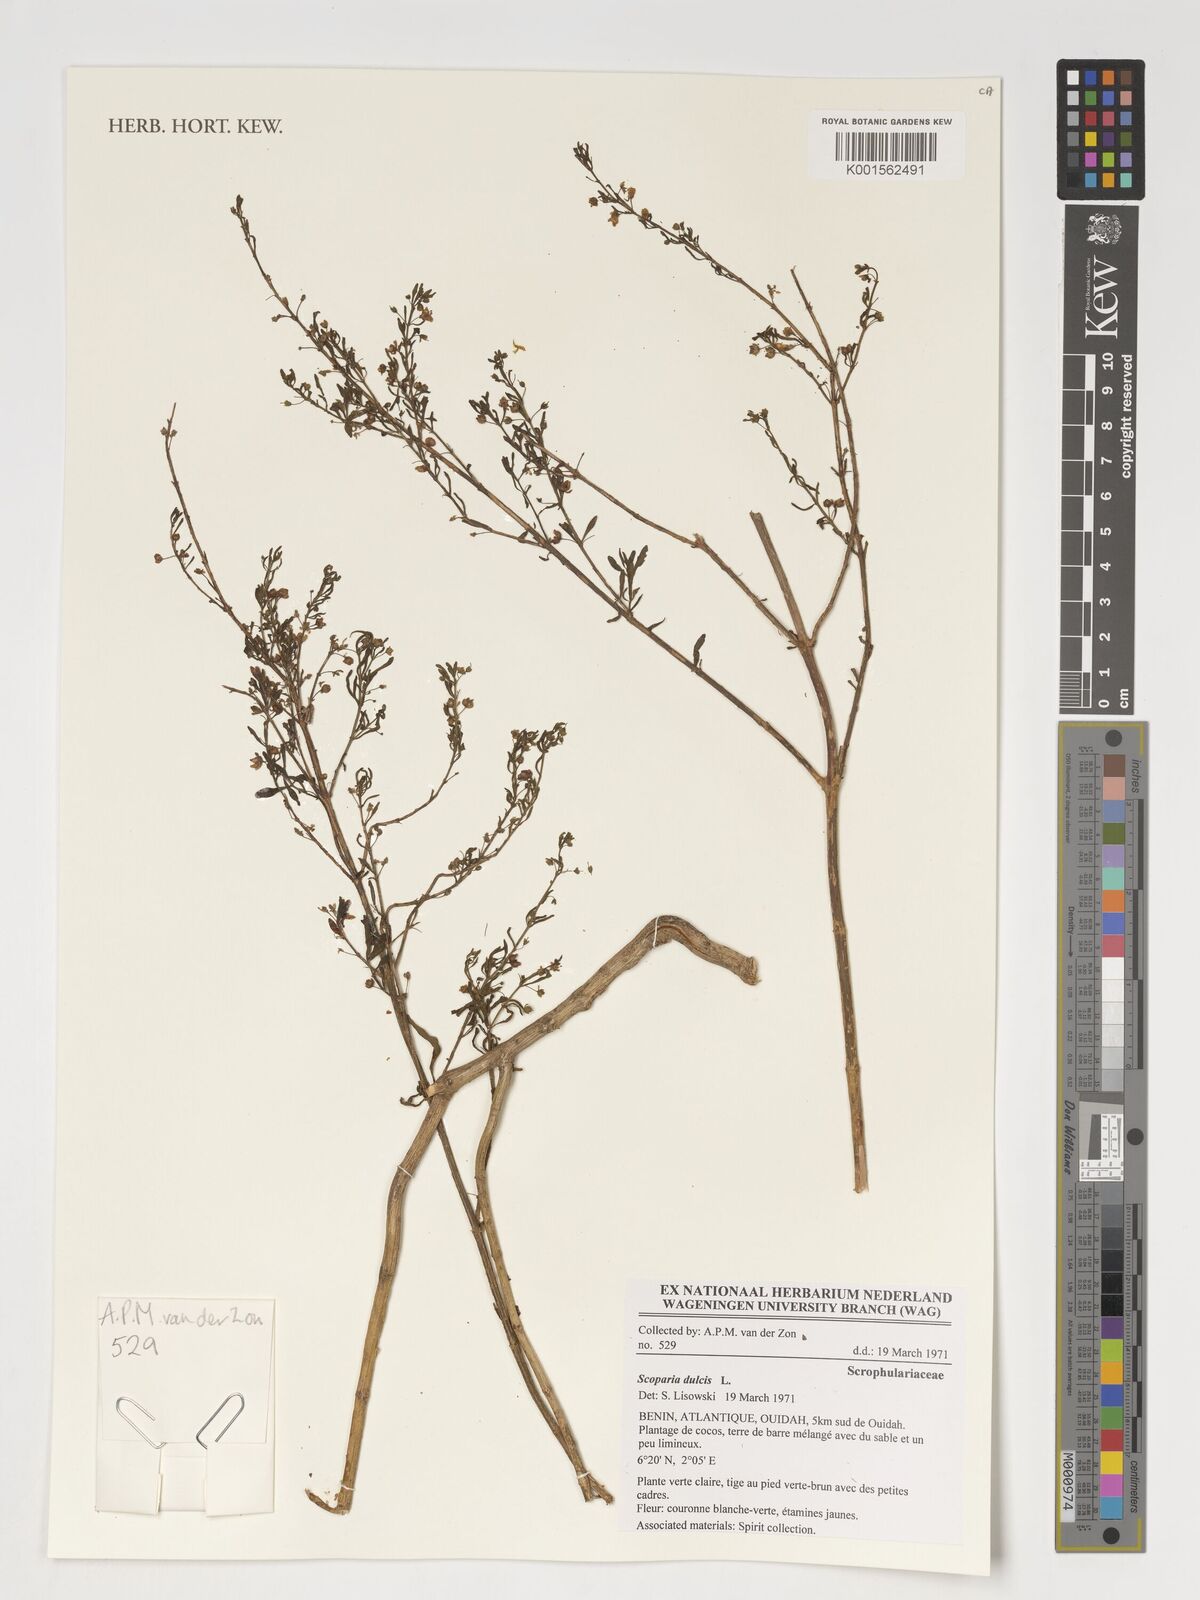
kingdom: Plantae
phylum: Tracheophyta
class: Magnoliopsida
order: Lamiales
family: Plantaginaceae
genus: Scoparia
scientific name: Scoparia dulcis
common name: Scoparia-weed
